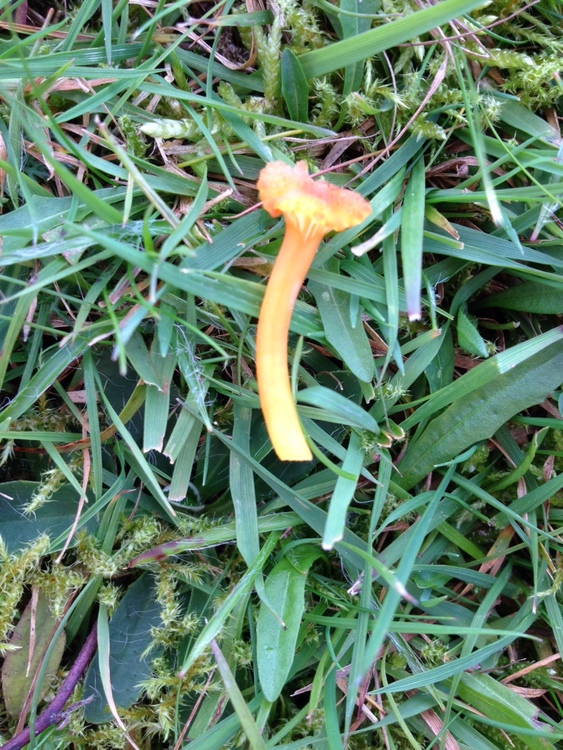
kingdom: Fungi
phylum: Basidiomycota
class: Agaricomycetes
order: Agaricales
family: Hygrophoraceae
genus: Hygrocybe
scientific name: Hygrocybe cantharellus
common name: kantarel-vokshat
